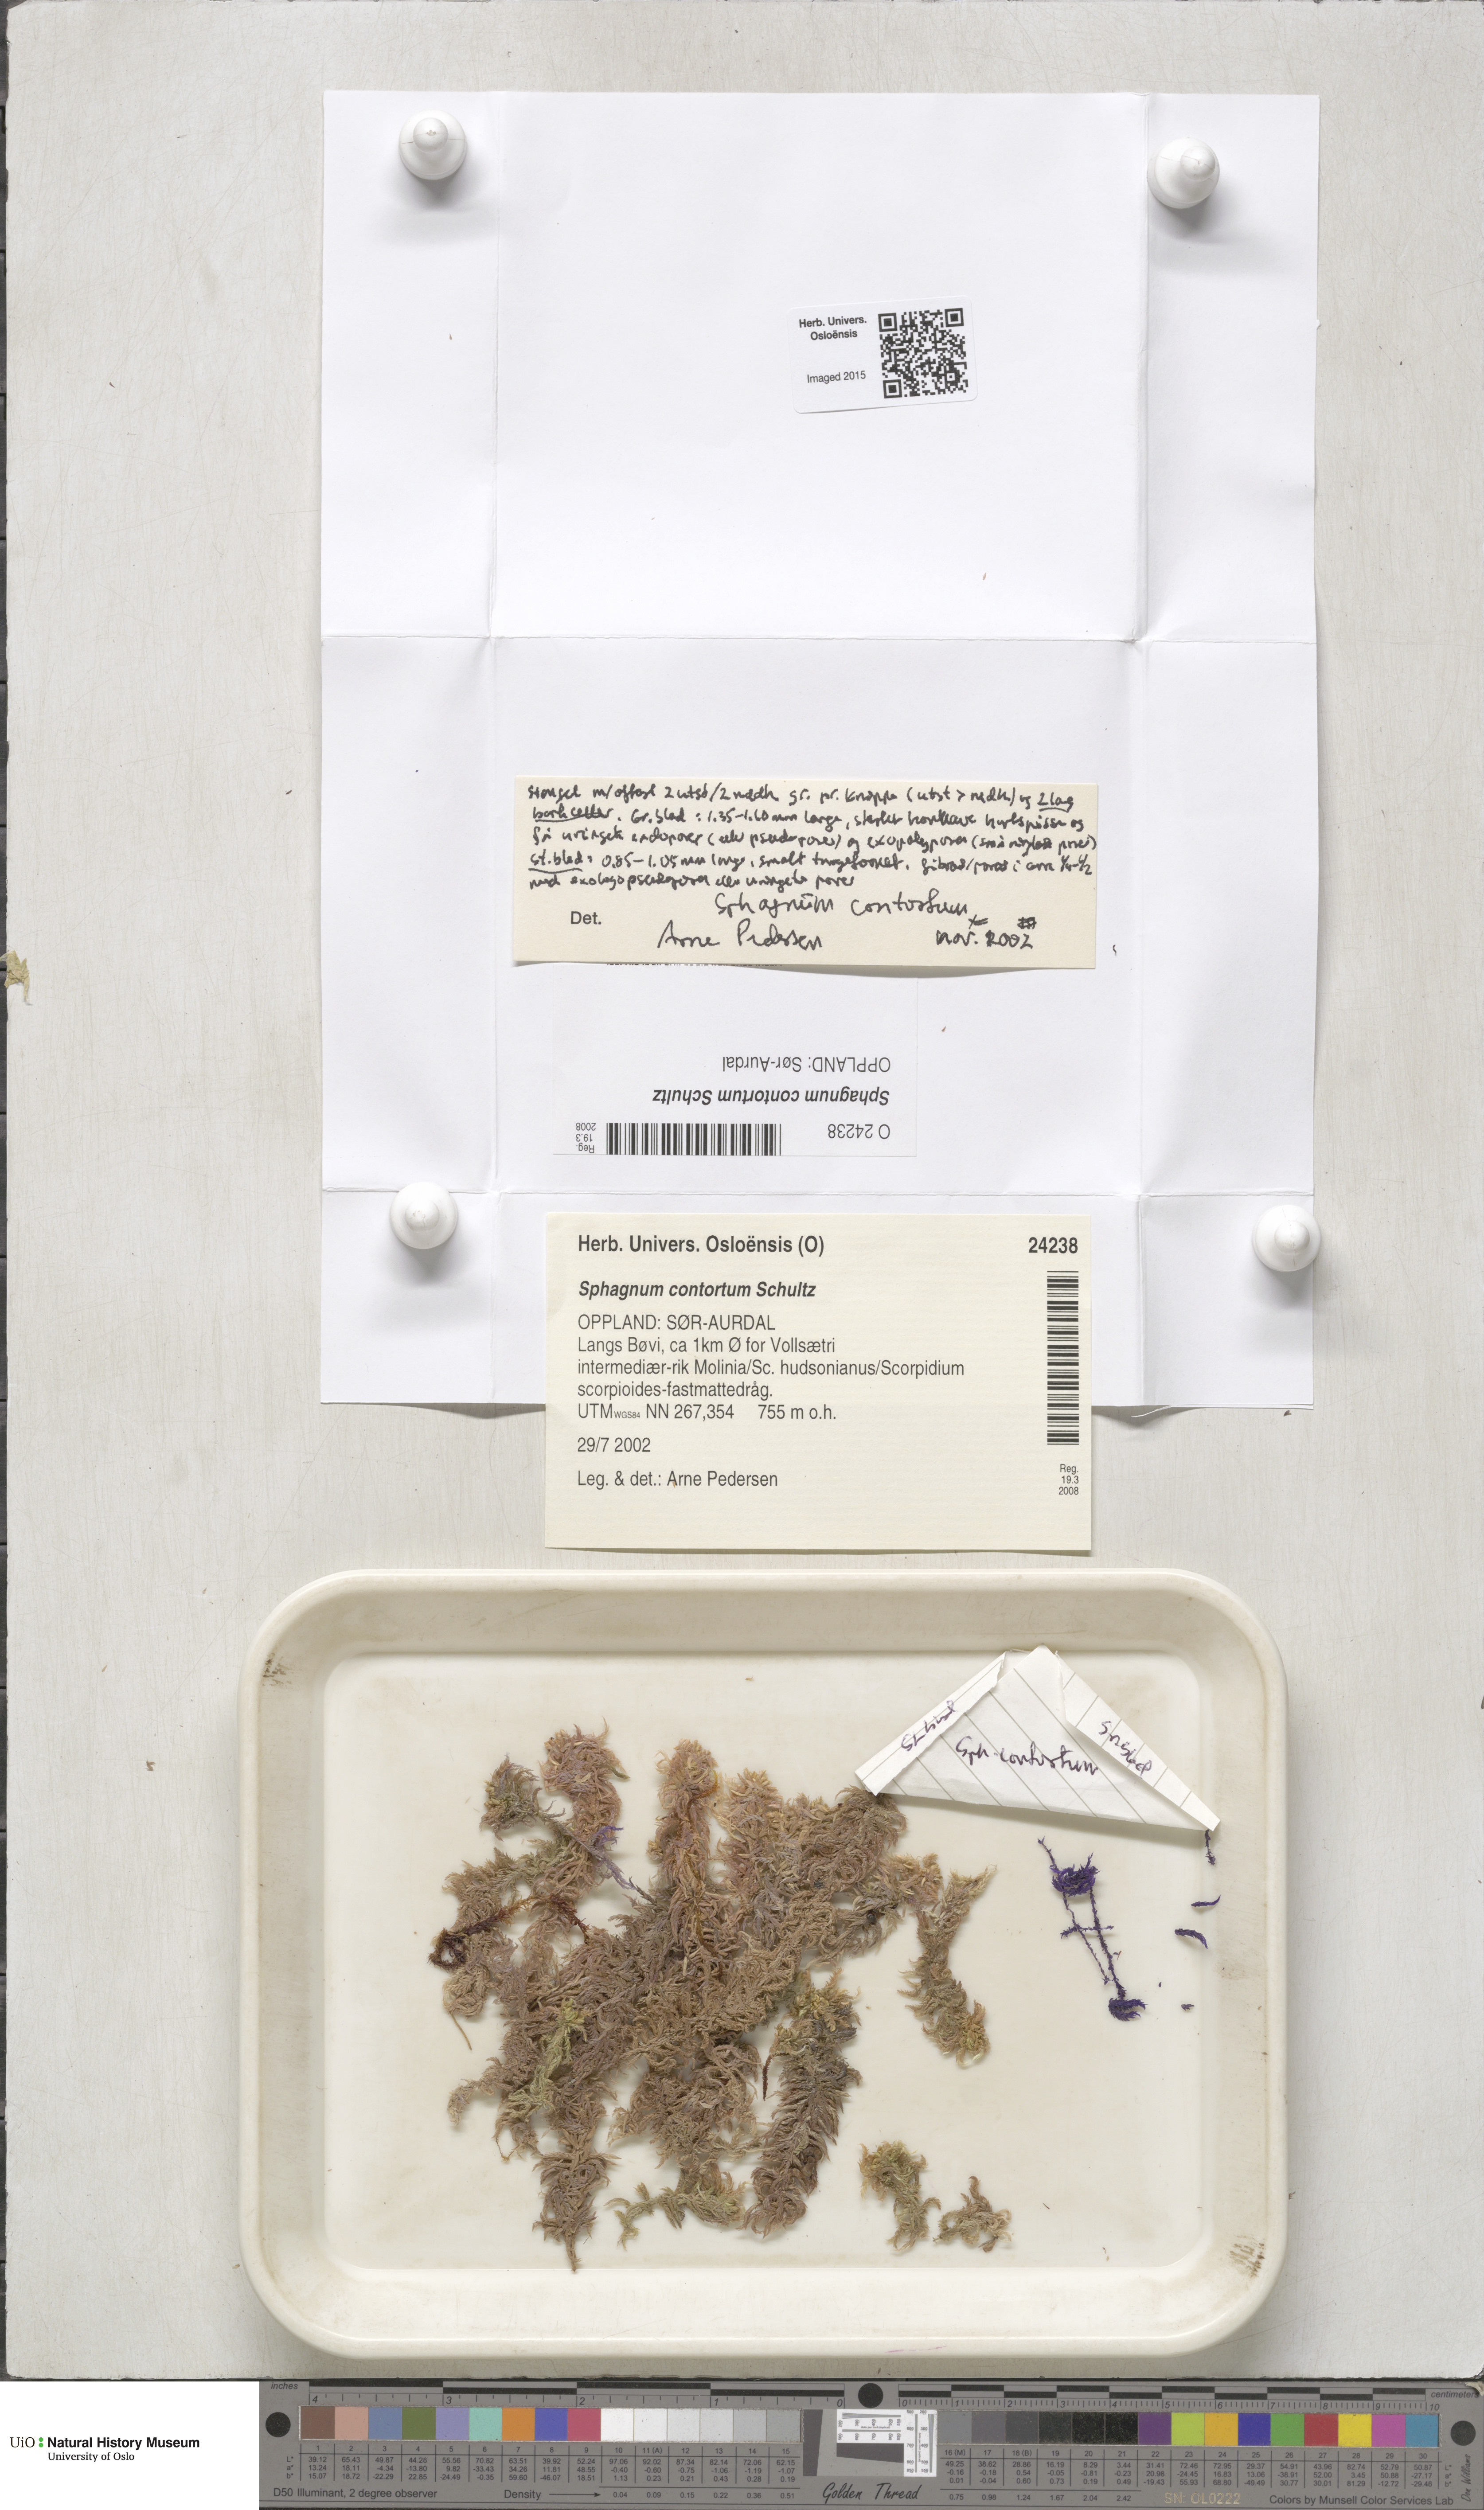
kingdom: Plantae
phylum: Bryophyta
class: Sphagnopsida
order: Sphagnales
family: Sphagnaceae
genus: Sphagnum
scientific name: Sphagnum contortum
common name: Twisted peat moss
